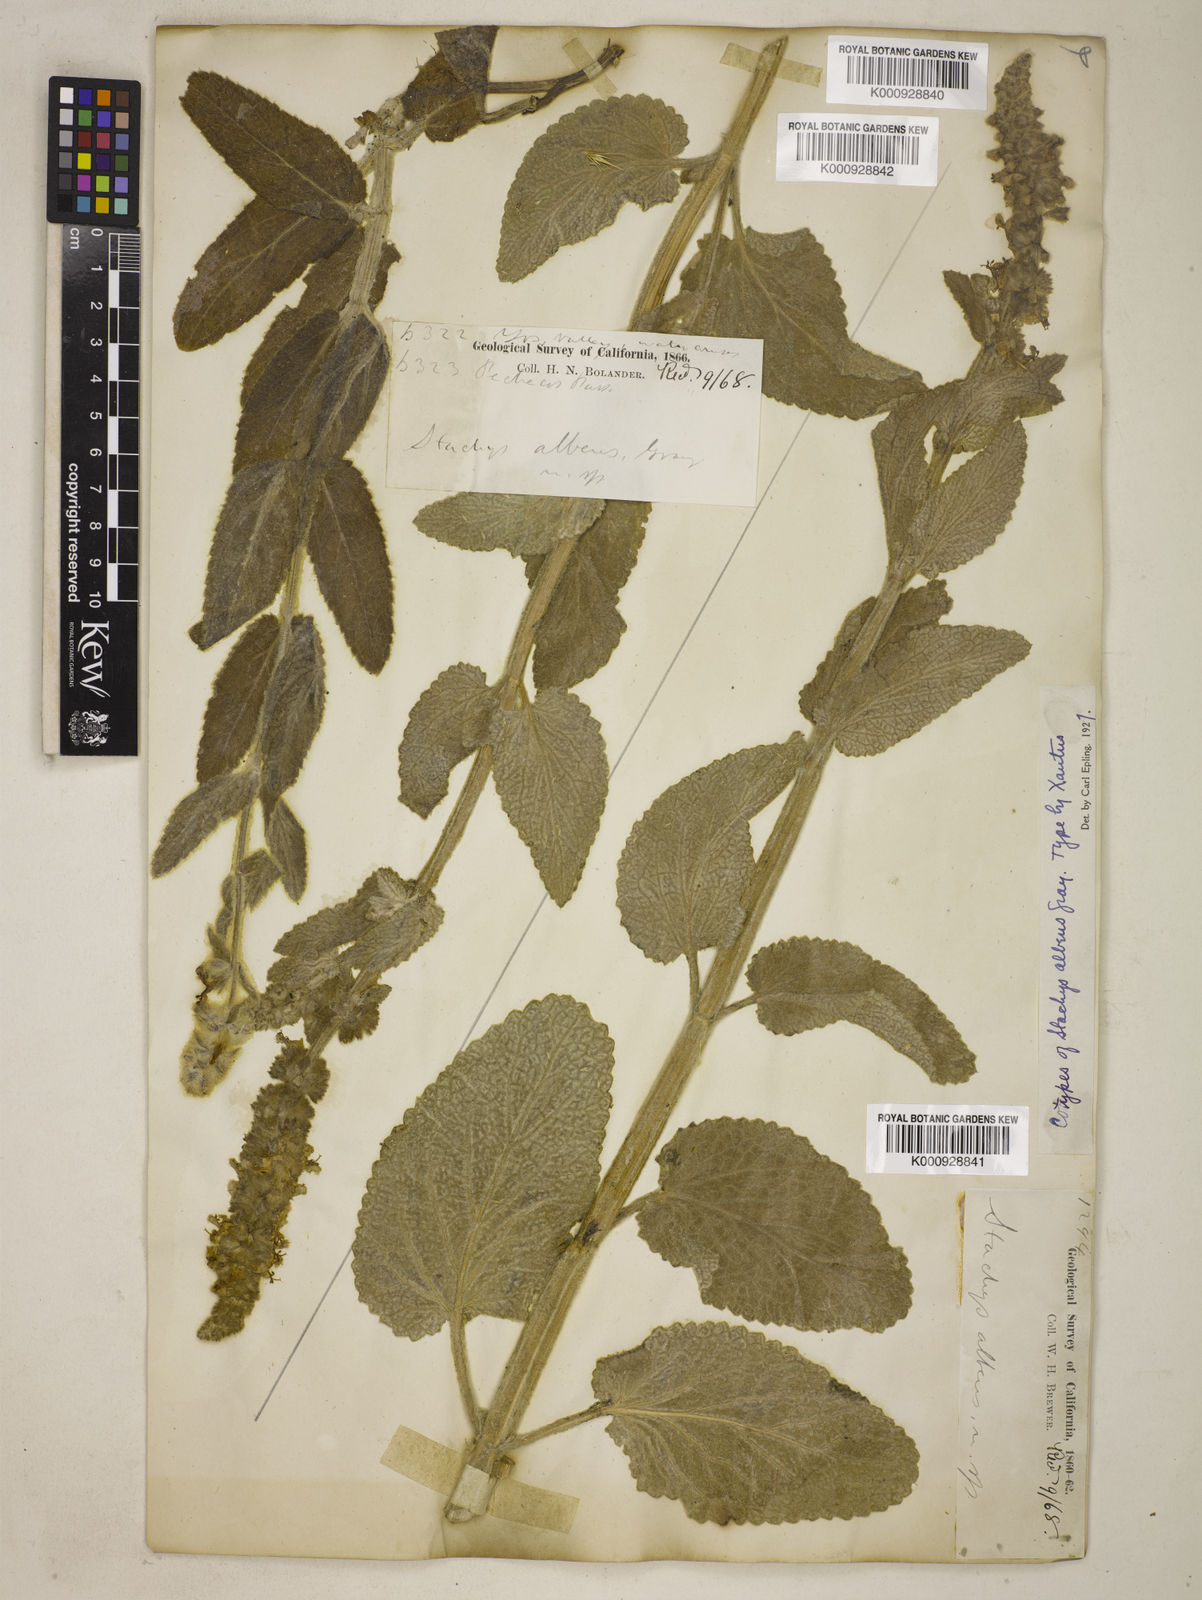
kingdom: Plantae
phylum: Tracheophyta
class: Magnoliopsida
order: Lamiales
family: Lamiaceae
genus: Stachys
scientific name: Stachys albens
